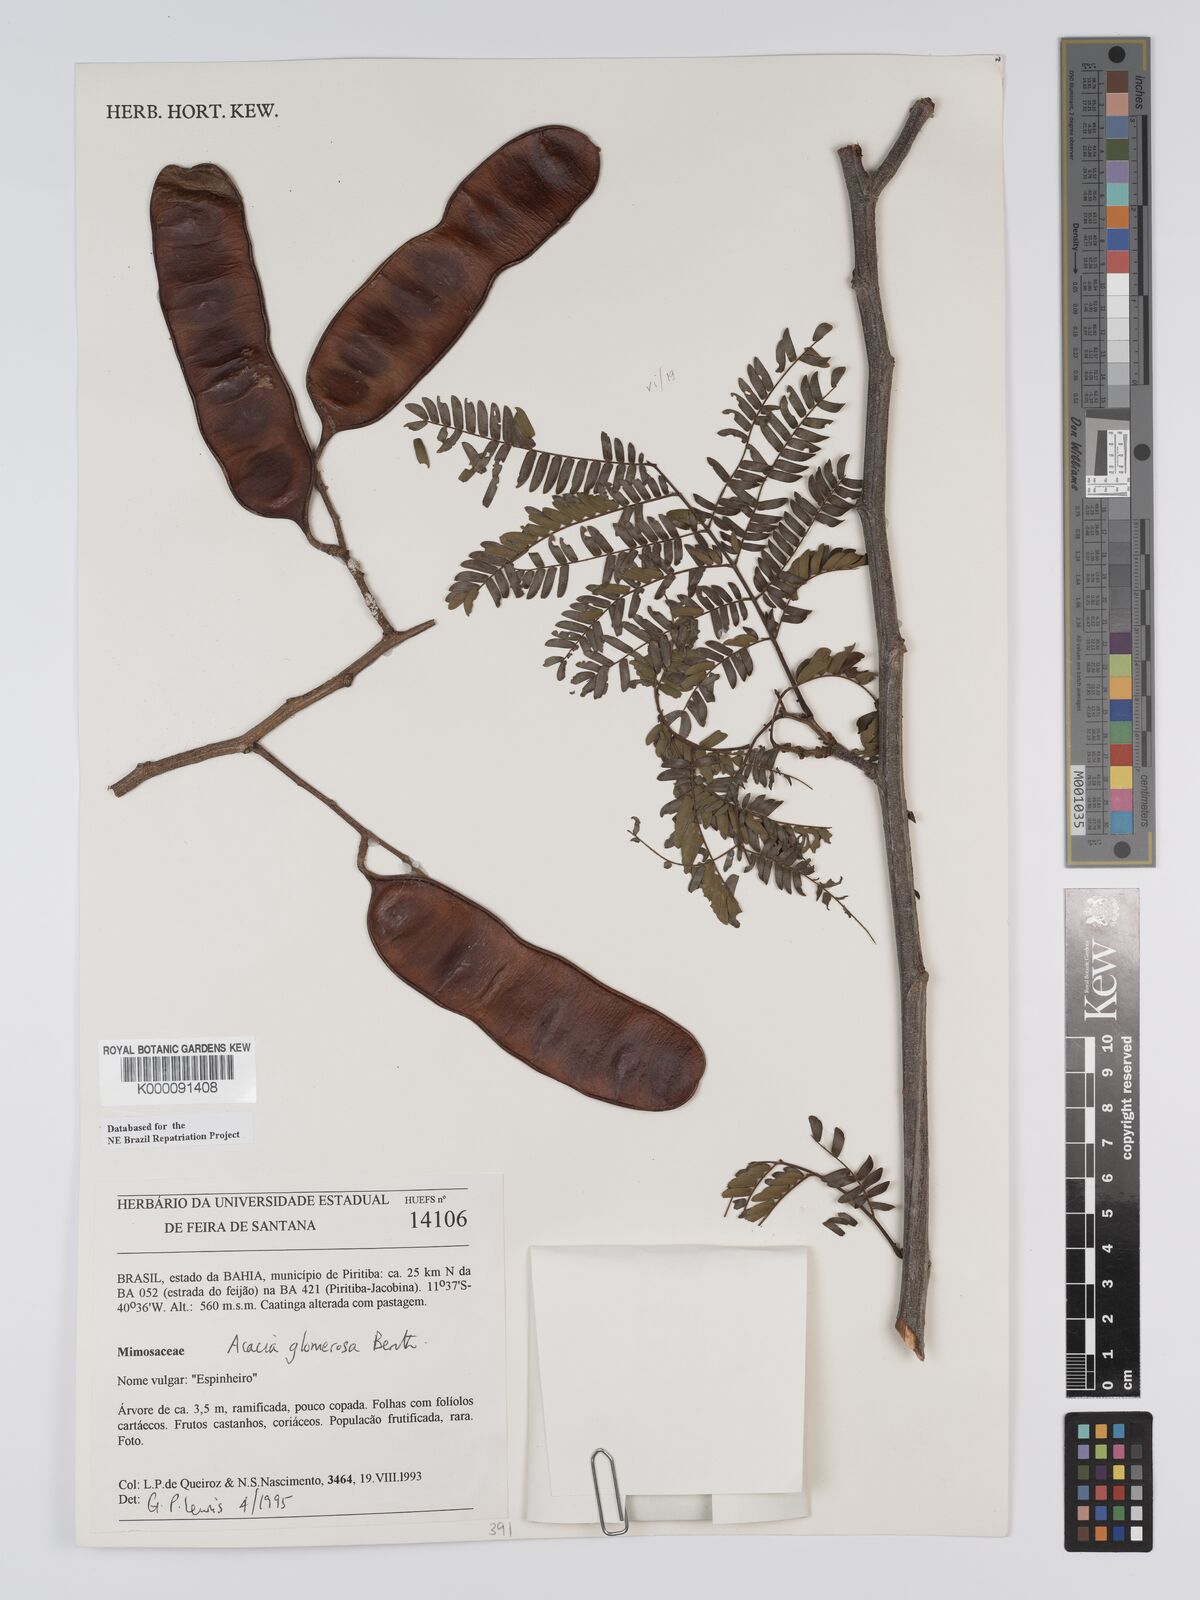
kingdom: Plantae
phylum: Tracheophyta
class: Magnoliopsida
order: Fabales
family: Fabaceae
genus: Senegalia
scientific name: Senegalia polyphylla
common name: White-tamarind
